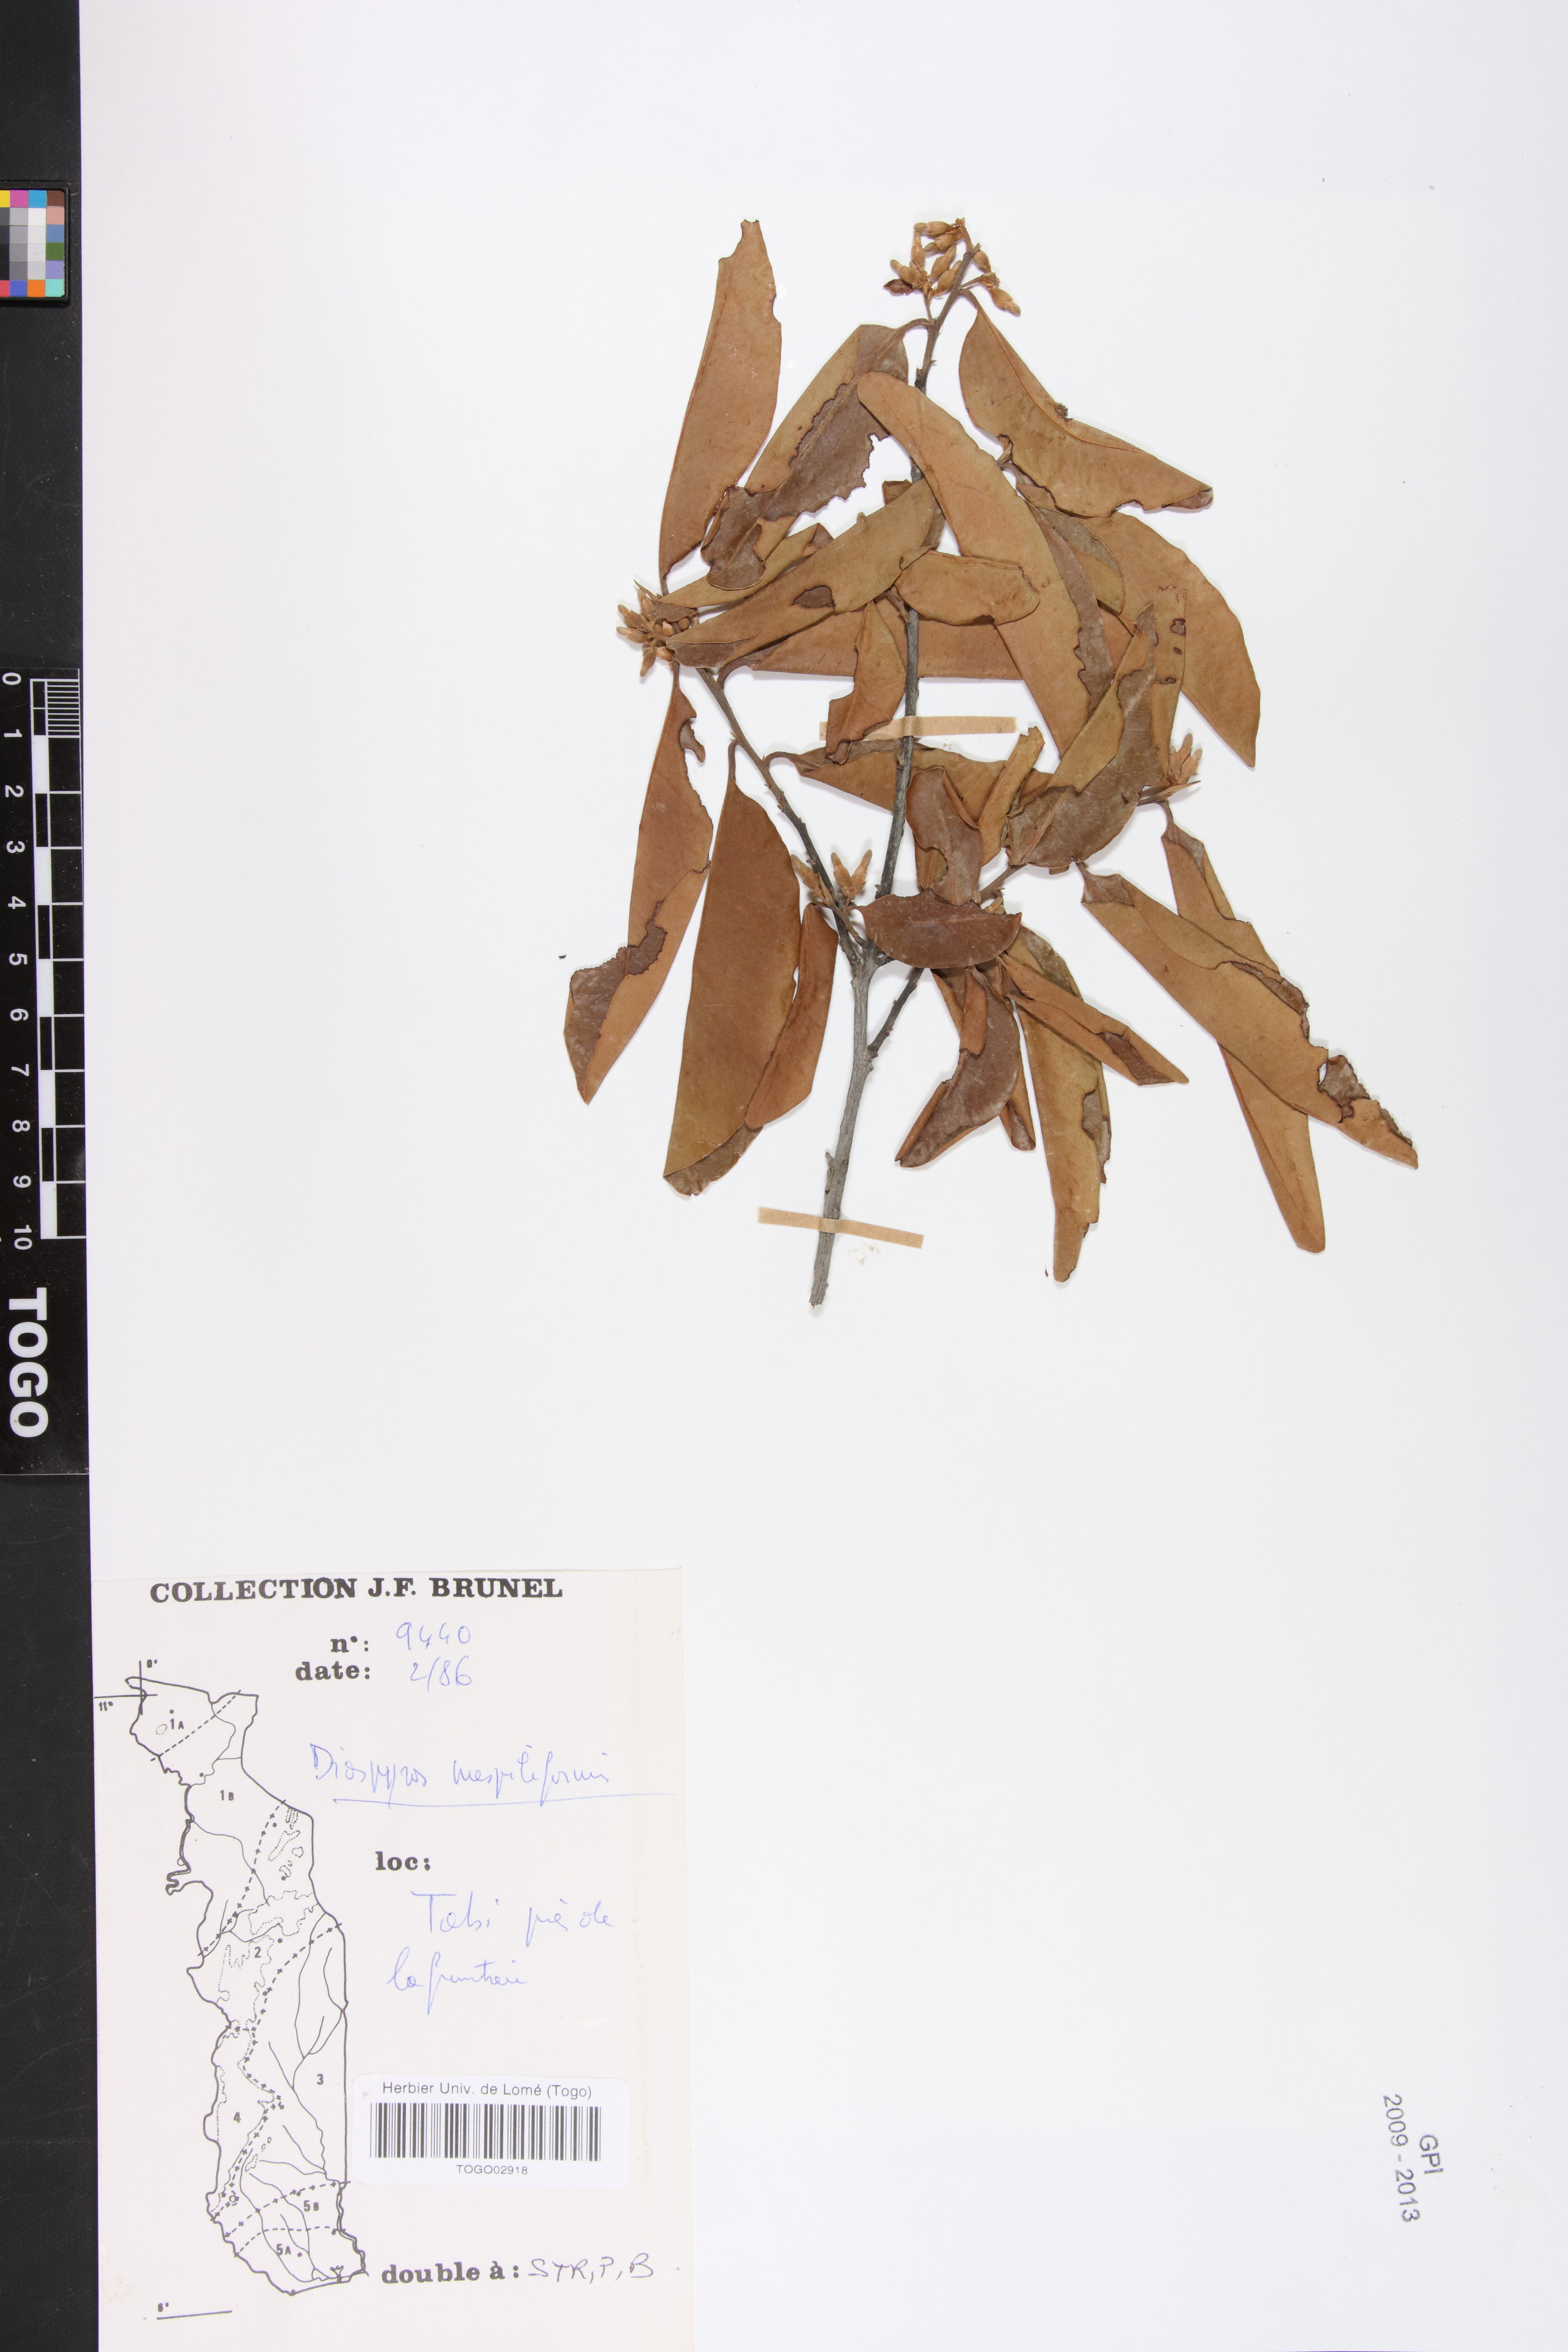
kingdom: Plantae
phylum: Tracheophyta
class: Magnoliopsida
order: Ericales
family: Ebenaceae
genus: Diospyros
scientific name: Diospyros mespiliformis
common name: Ebony diospyros
